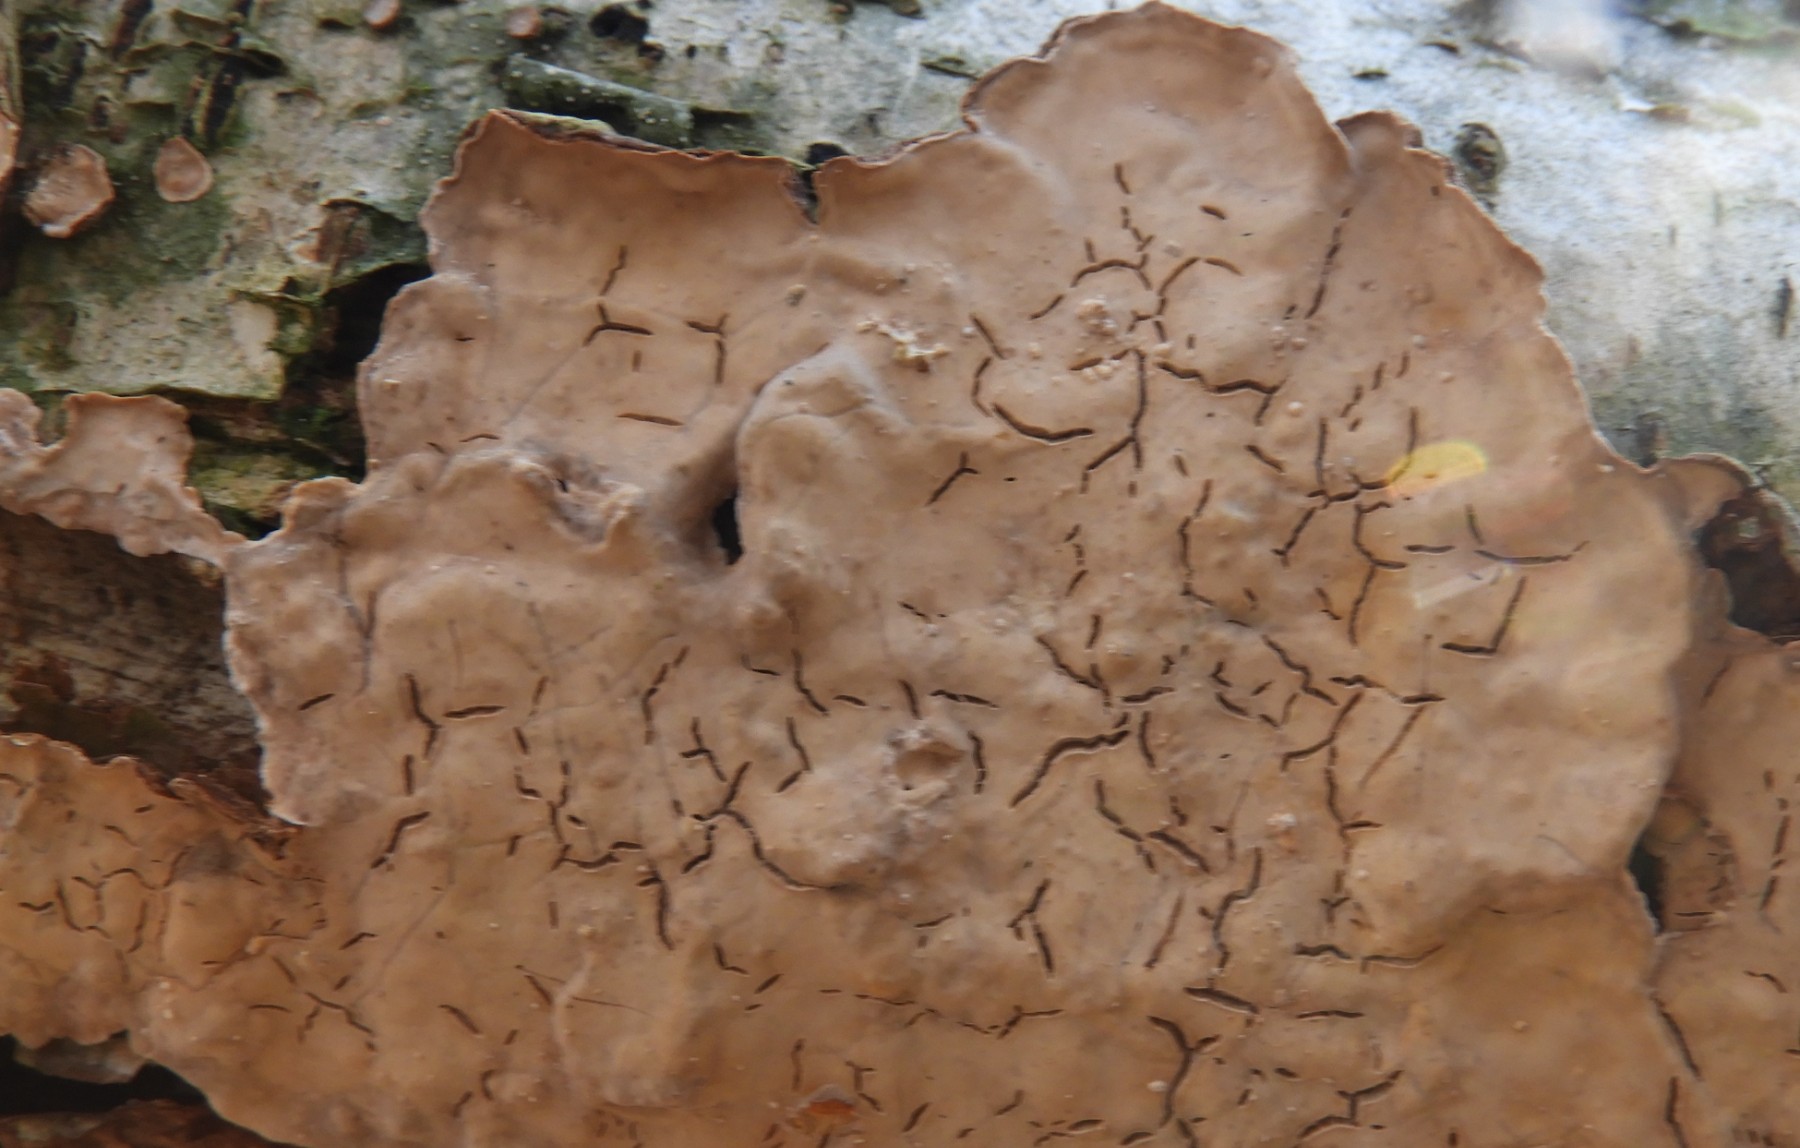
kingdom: Fungi
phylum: Basidiomycota
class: Agaricomycetes
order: Agaricales
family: Physalacriaceae
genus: Cylindrobasidium
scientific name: Cylindrobasidium evolvens
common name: sprækkehinde
